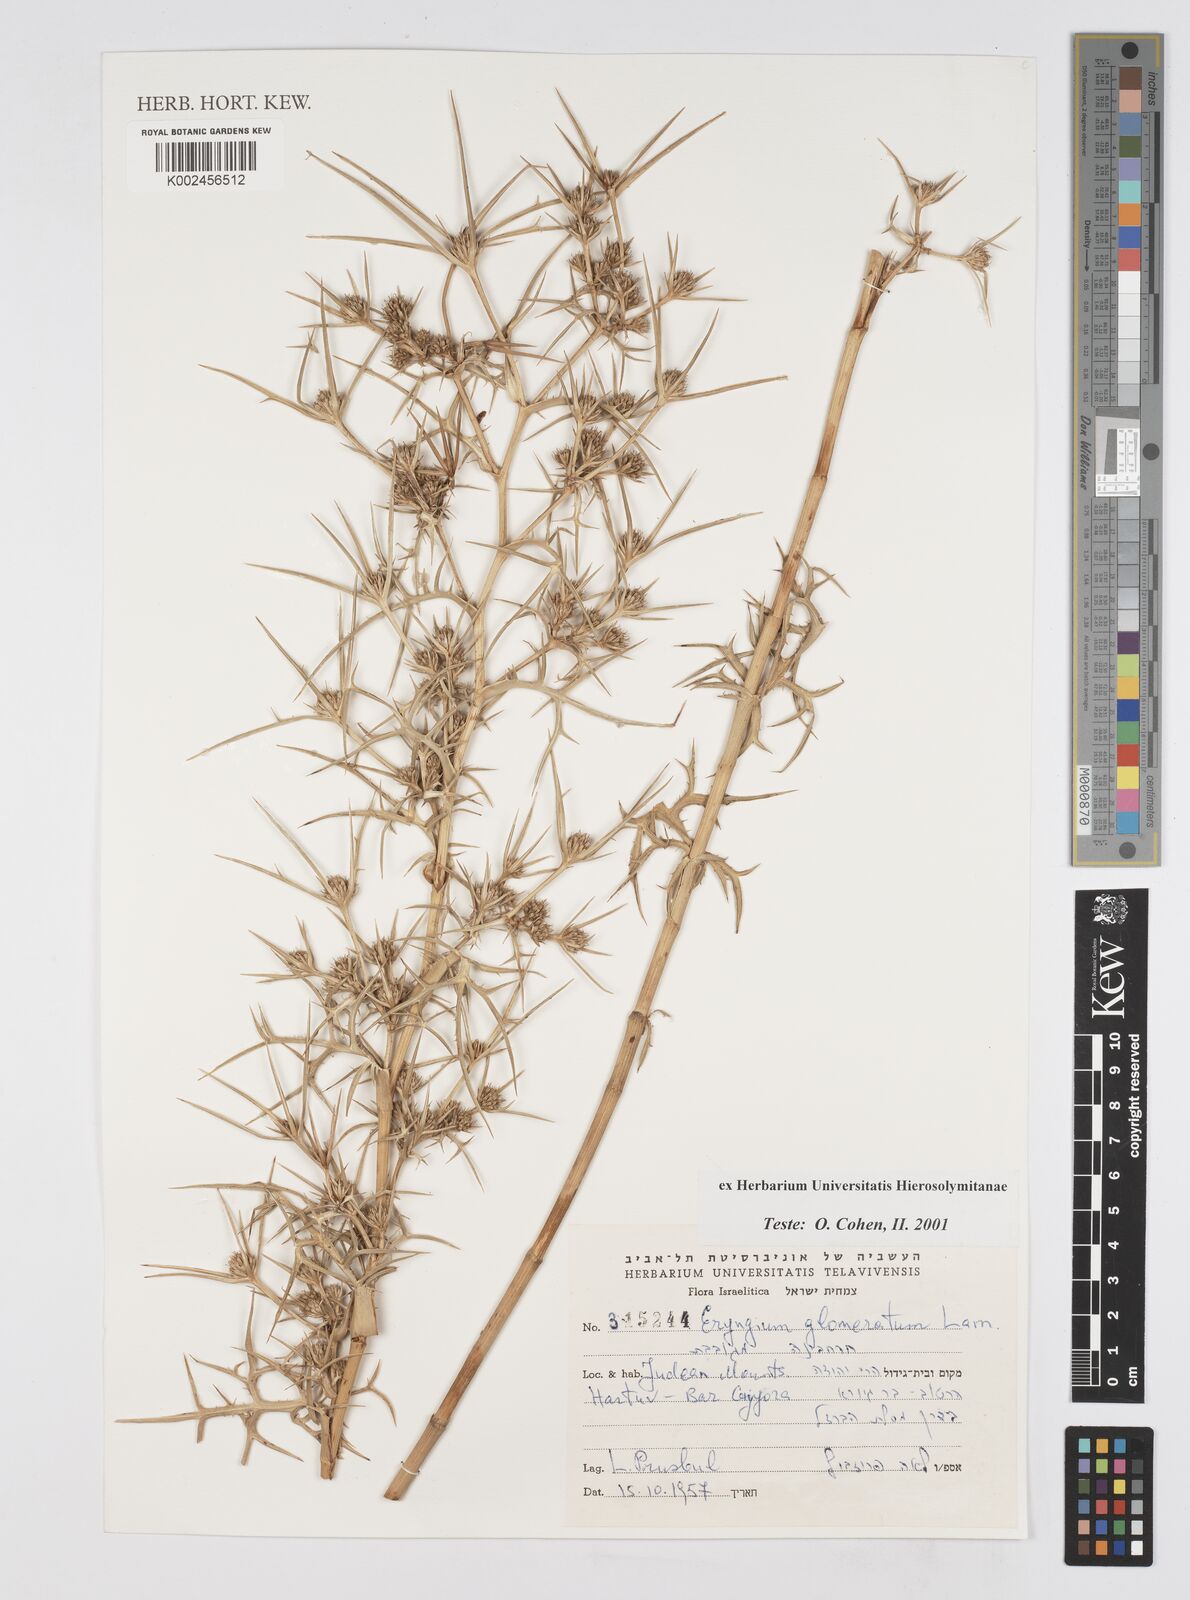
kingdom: Plantae
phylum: Tracheophyta
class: Magnoliopsida
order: Apiales
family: Apiaceae
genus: Eryngium
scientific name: Eryngium glomeratum
